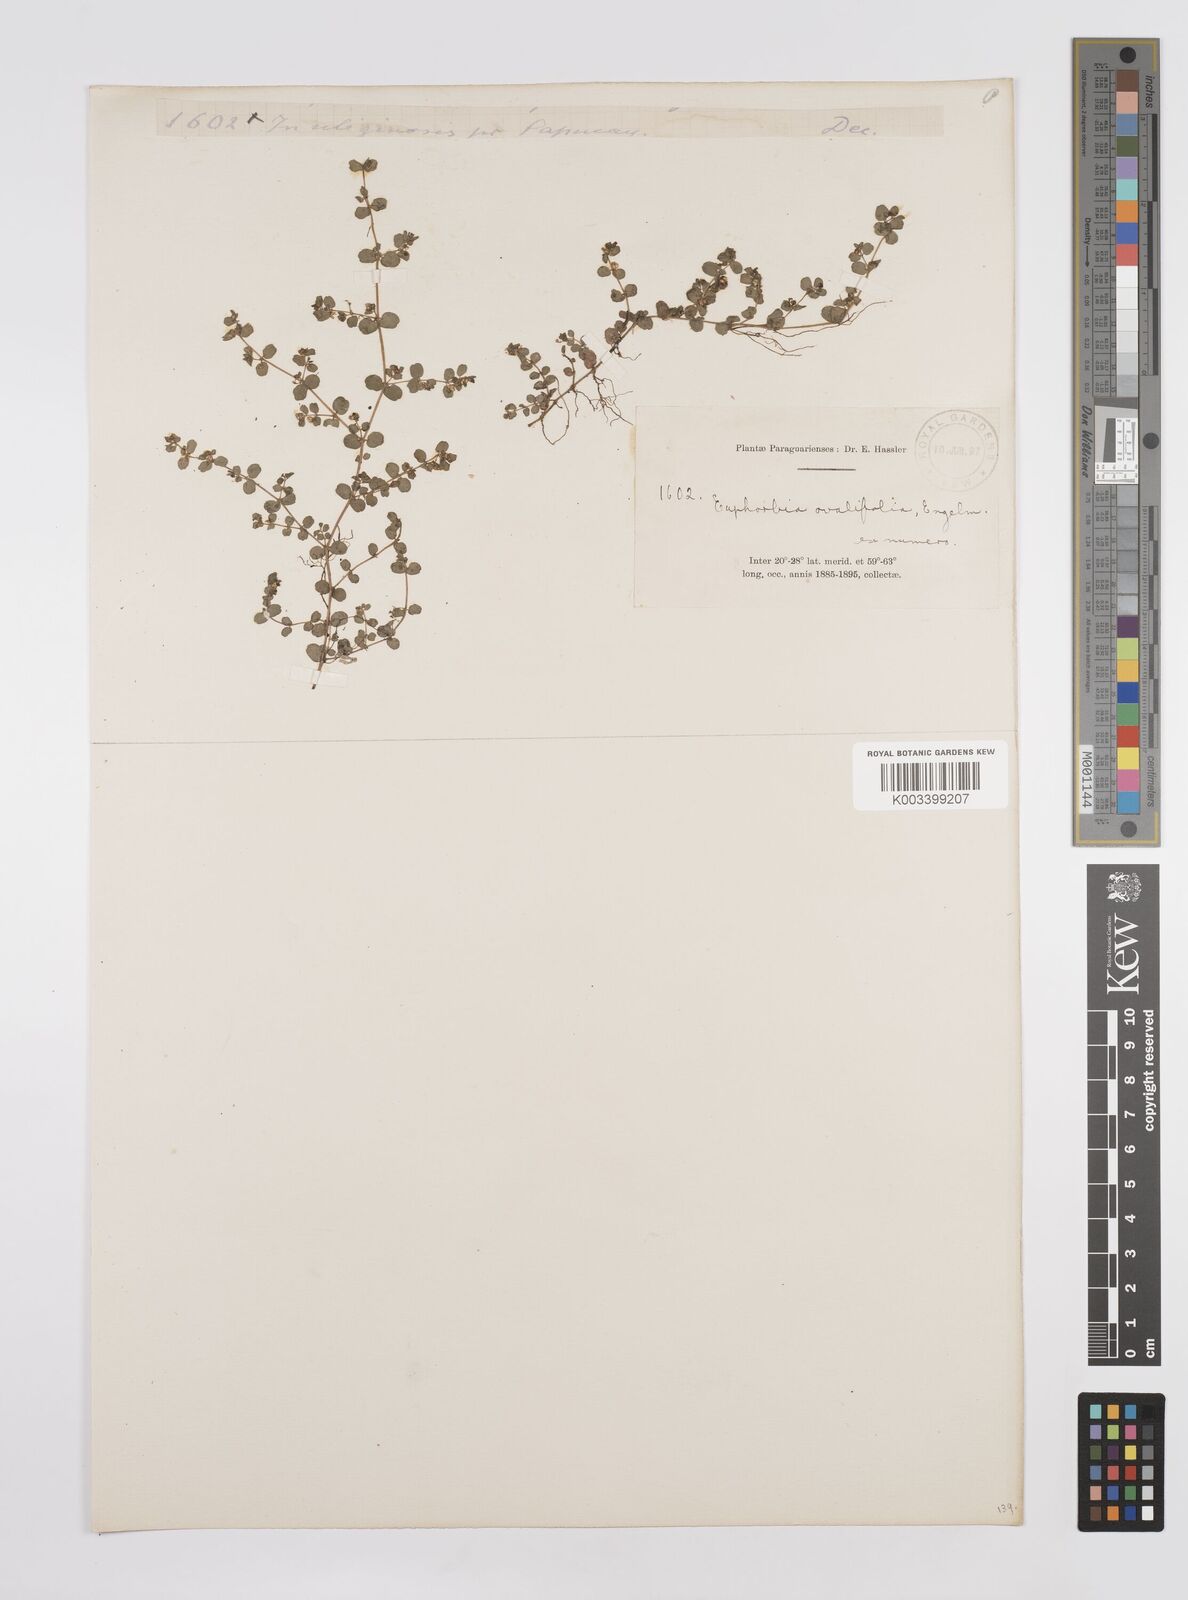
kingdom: Plantae
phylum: Tracheophyta
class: Magnoliopsida
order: Malpighiales
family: Euphorbiaceae
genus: Euphorbia
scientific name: Euphorbia indica
